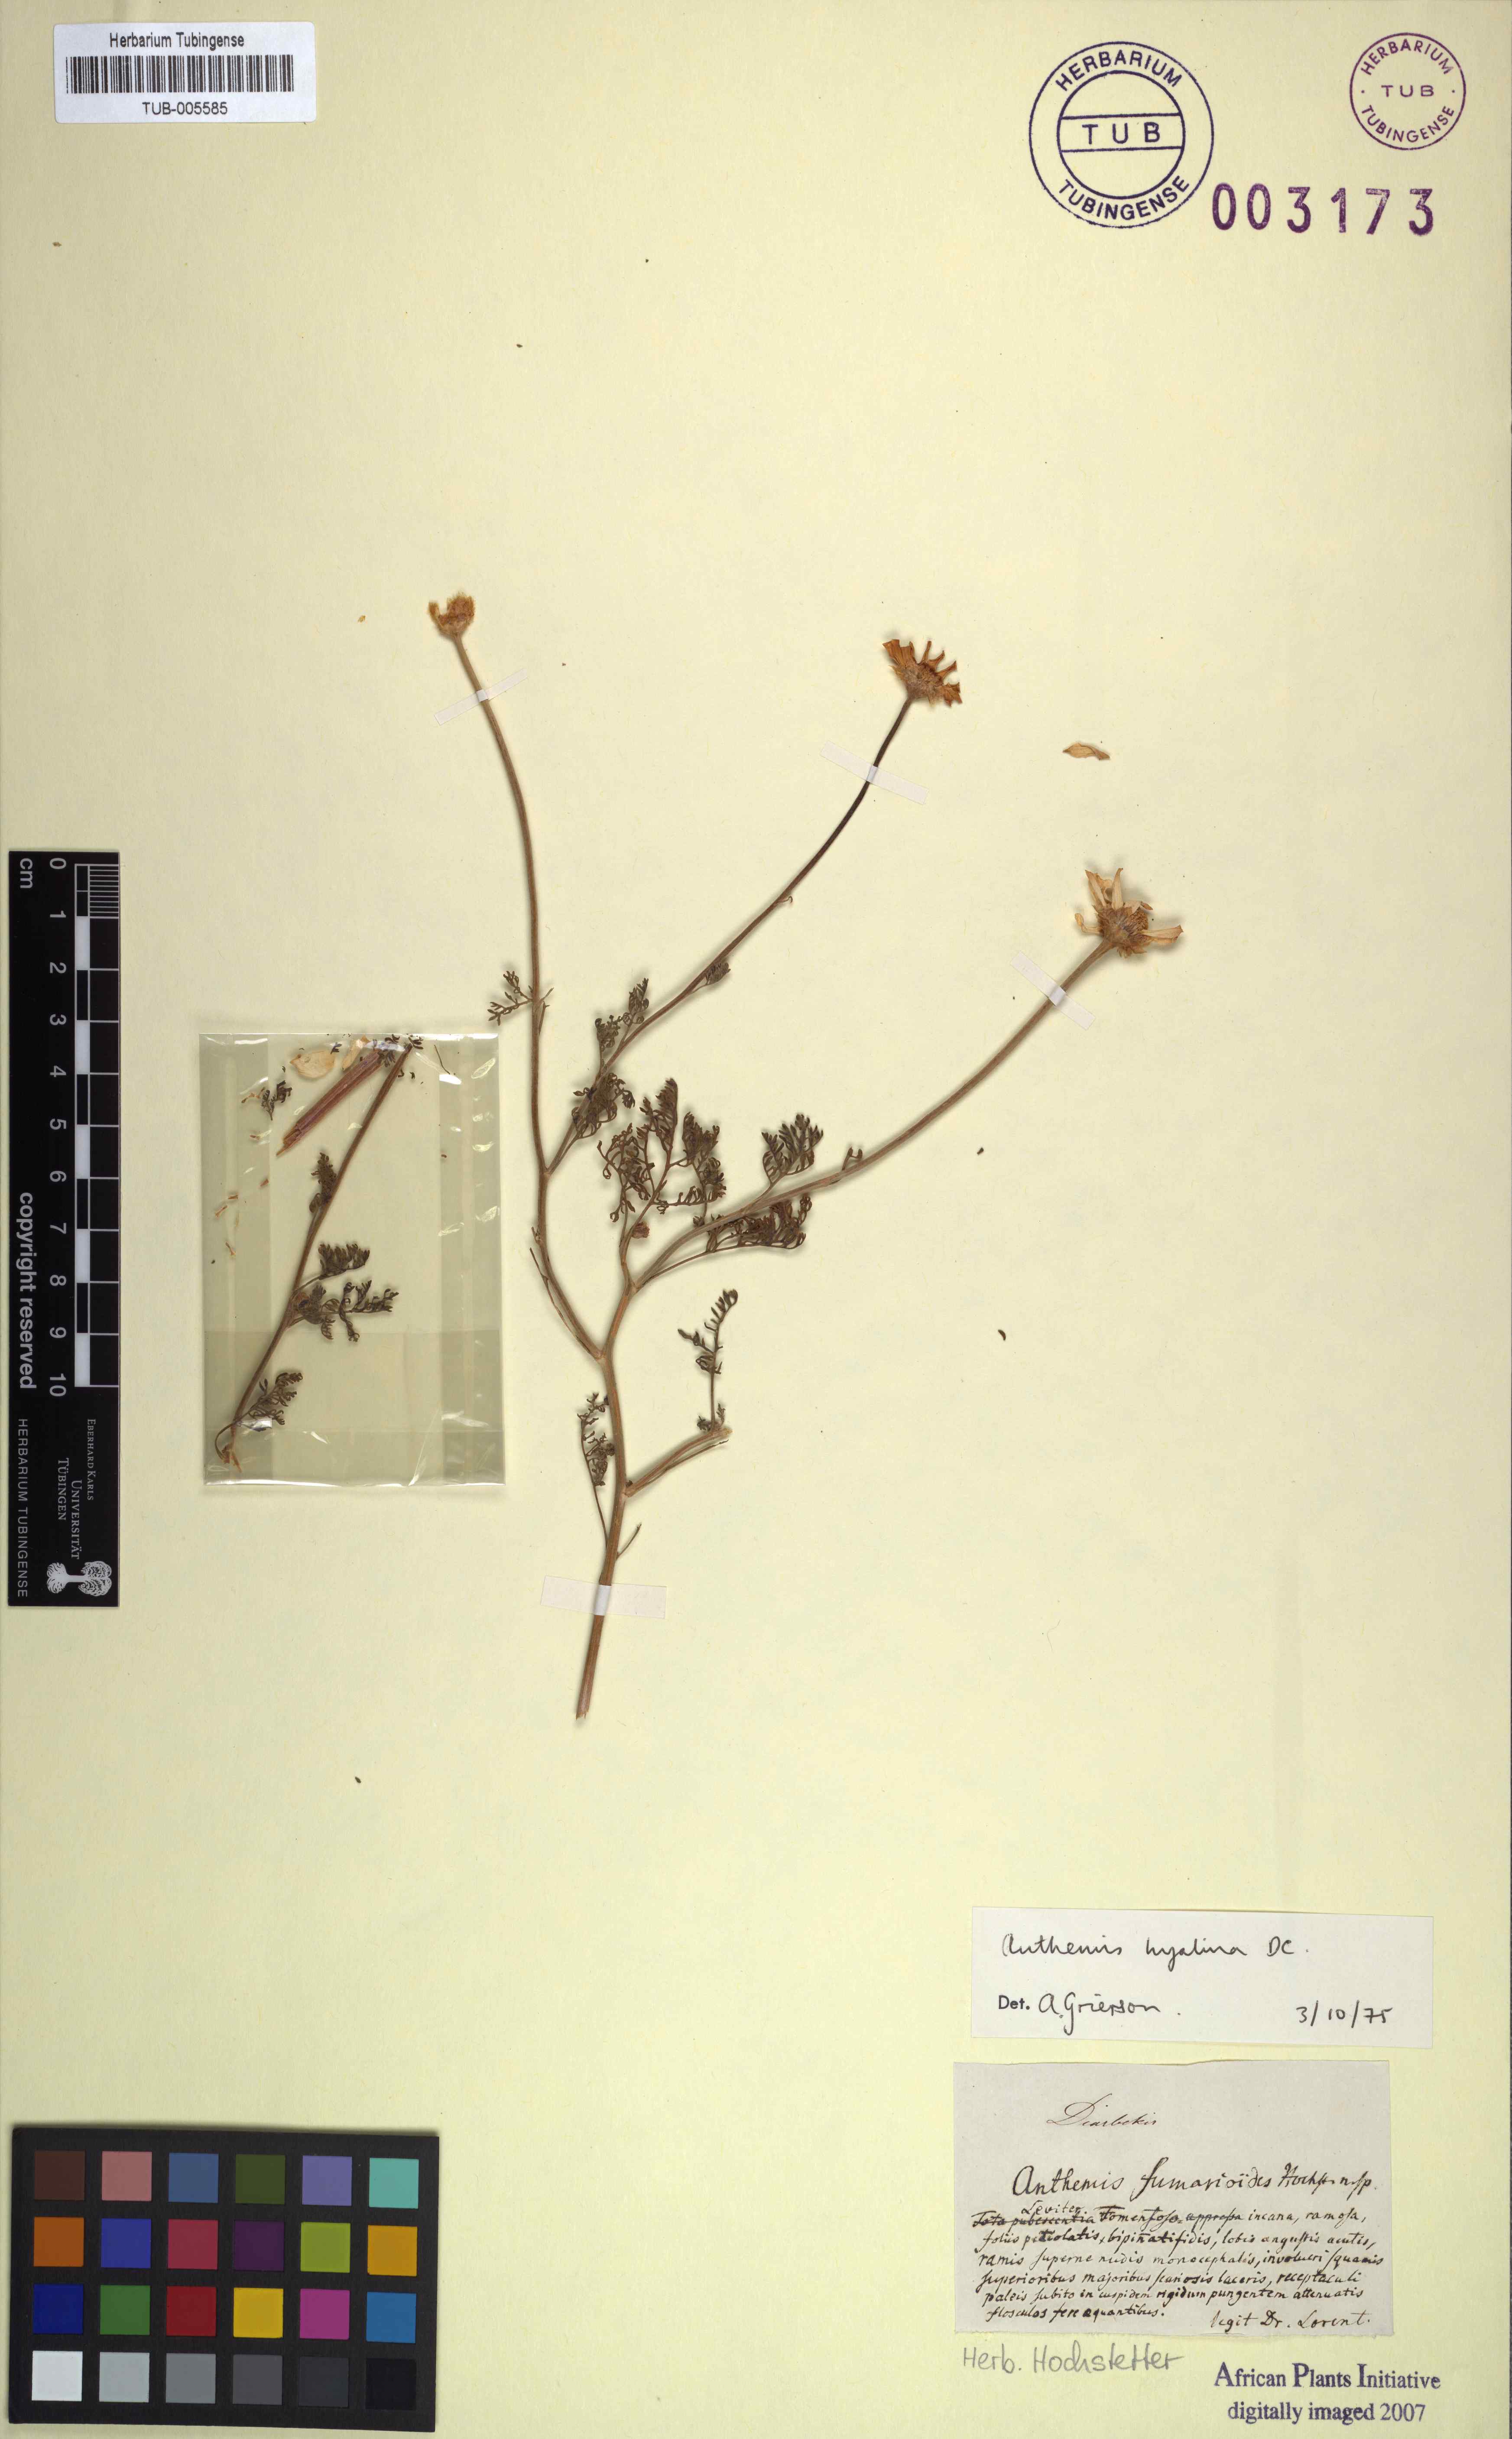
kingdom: Plantae
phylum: Tracheophyta
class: Magnoliopsida
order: Asterales
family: Asteraceae
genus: Anthemis
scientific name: Anthemis hyalina
